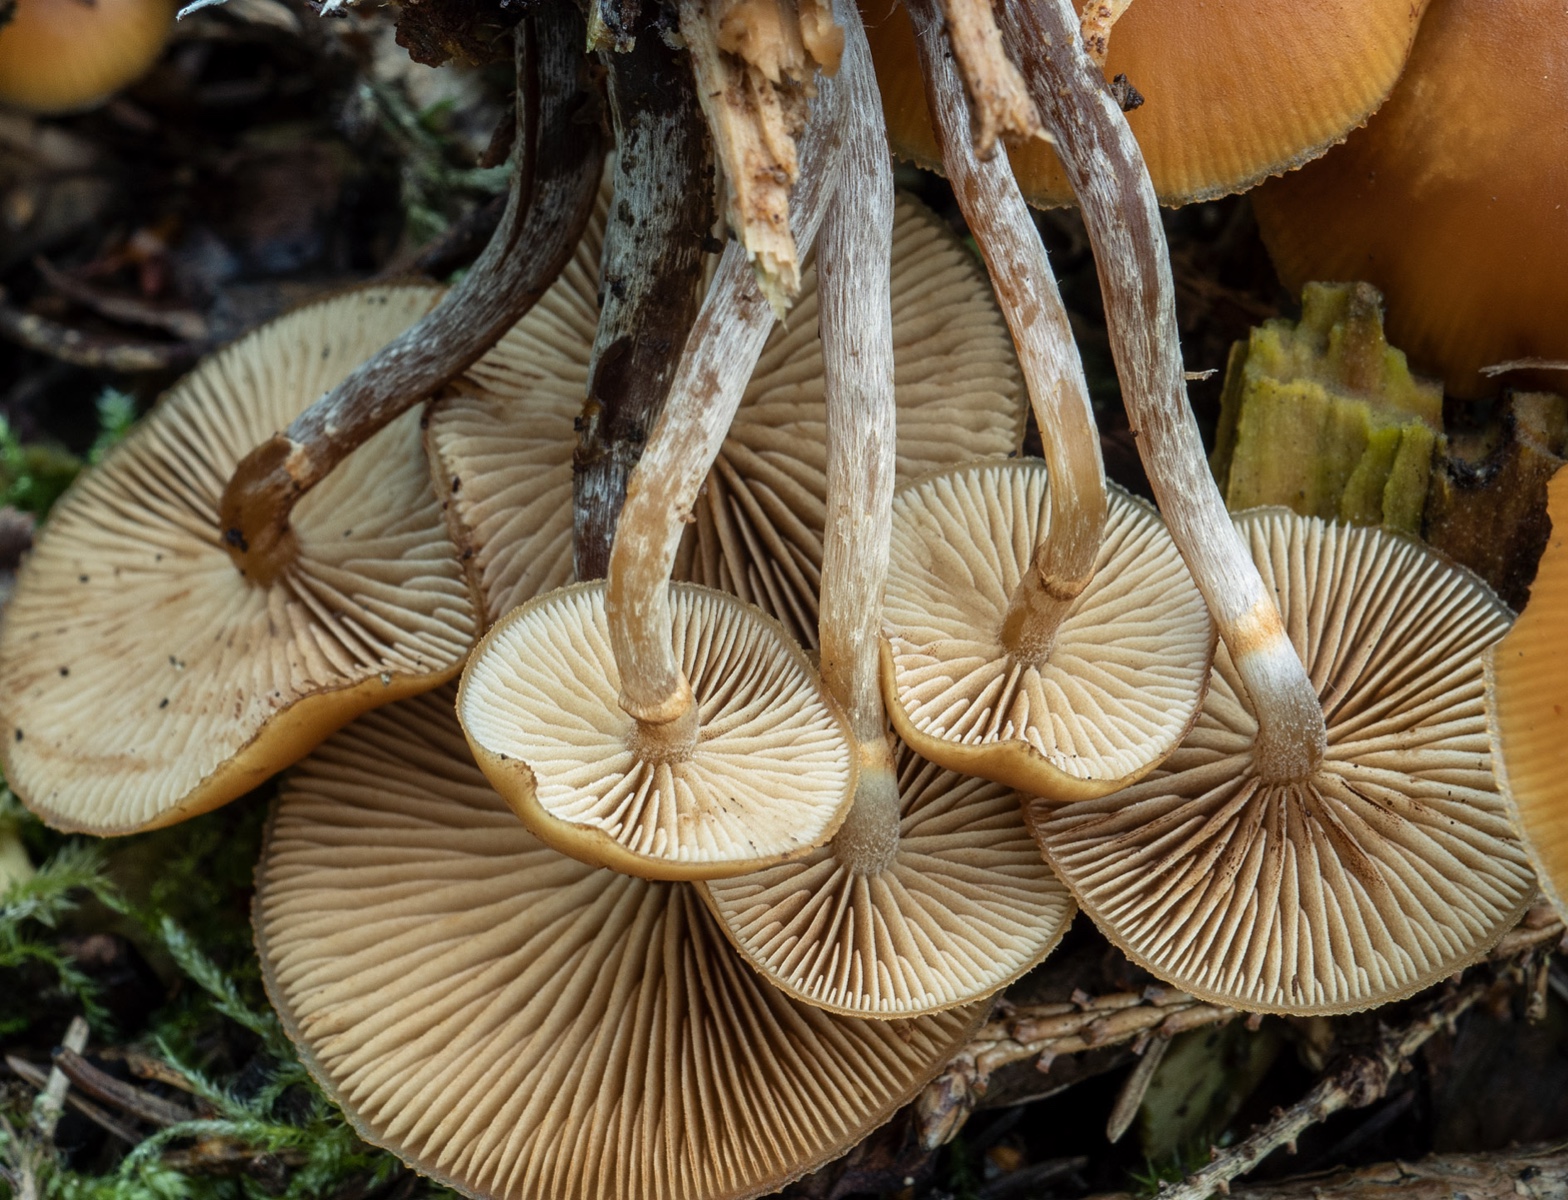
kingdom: Fungi
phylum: Basidiomycota
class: Agaricomycetes
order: Agaricales
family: Hymenogastraceae
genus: Galerina
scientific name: Galerina marginata
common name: randbæltet hjelmhat
